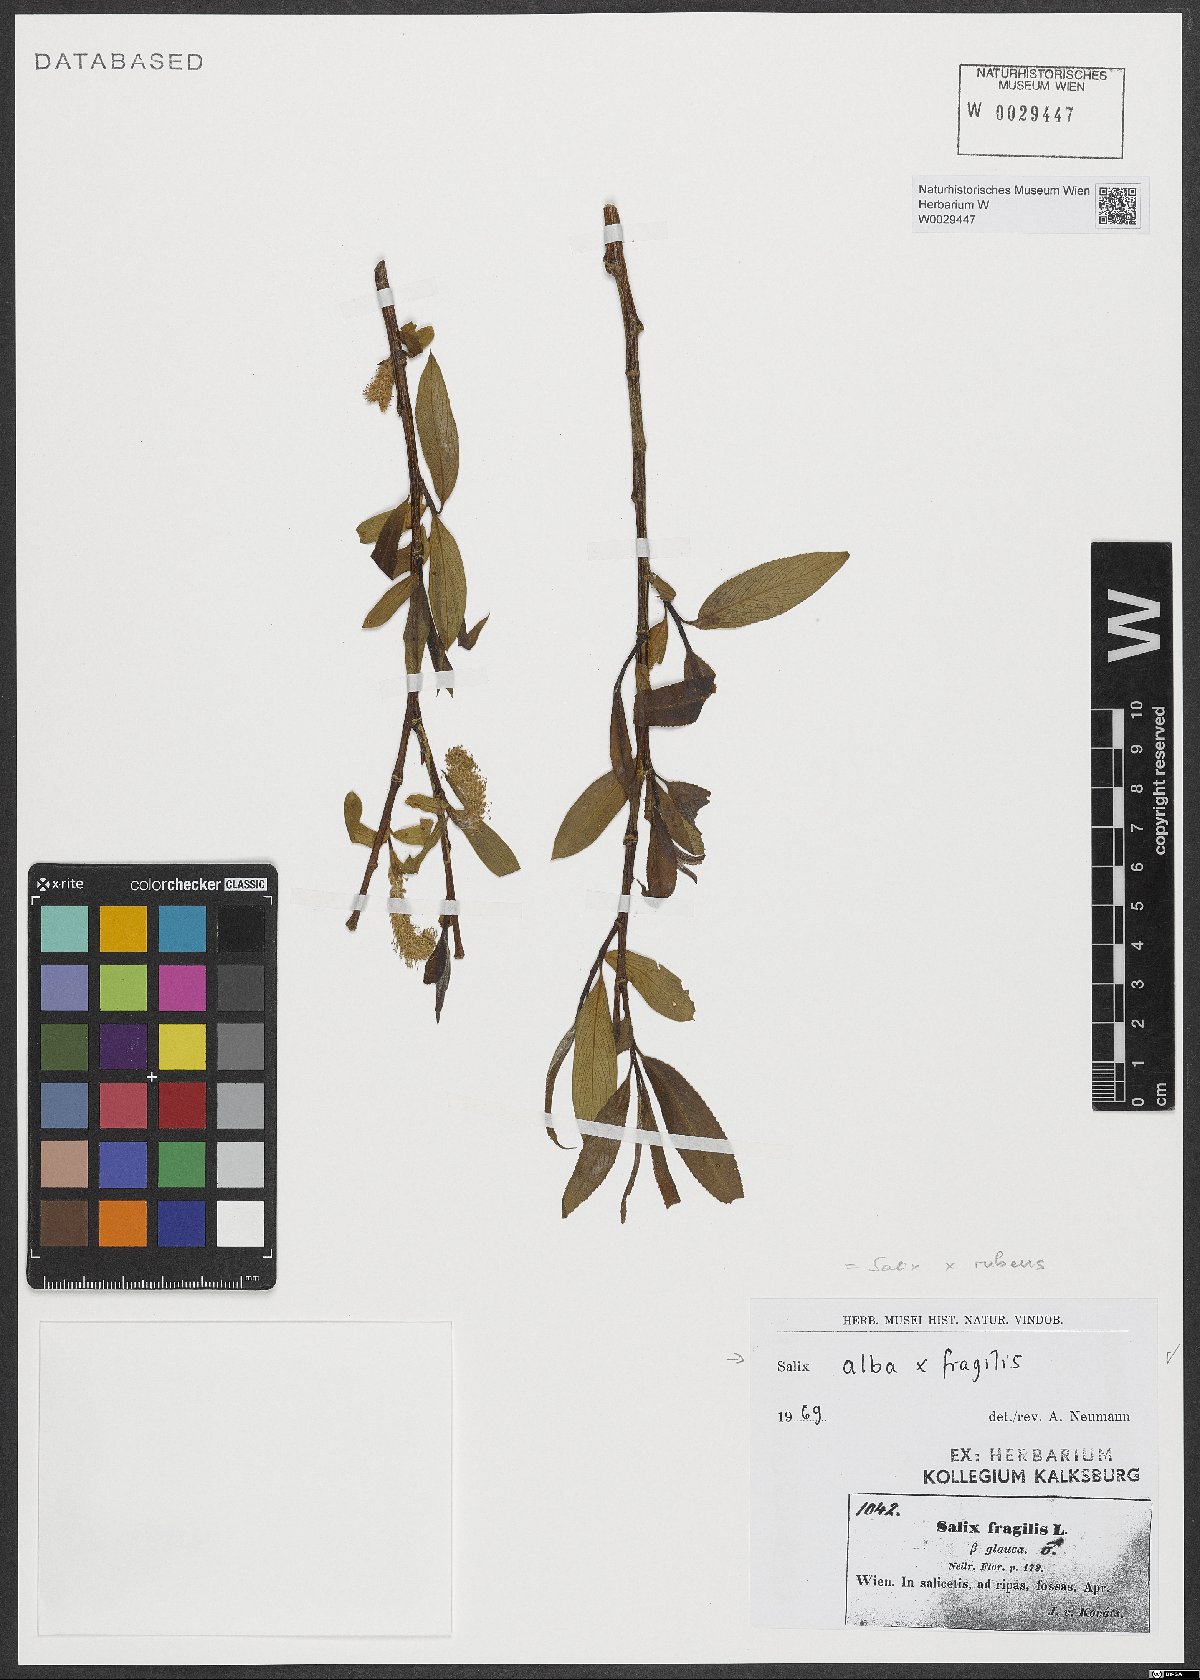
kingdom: Plantae
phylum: Tracheophyta
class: Magnoliopsida
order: Malpighiales
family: Salicaceae
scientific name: Salicaceae
